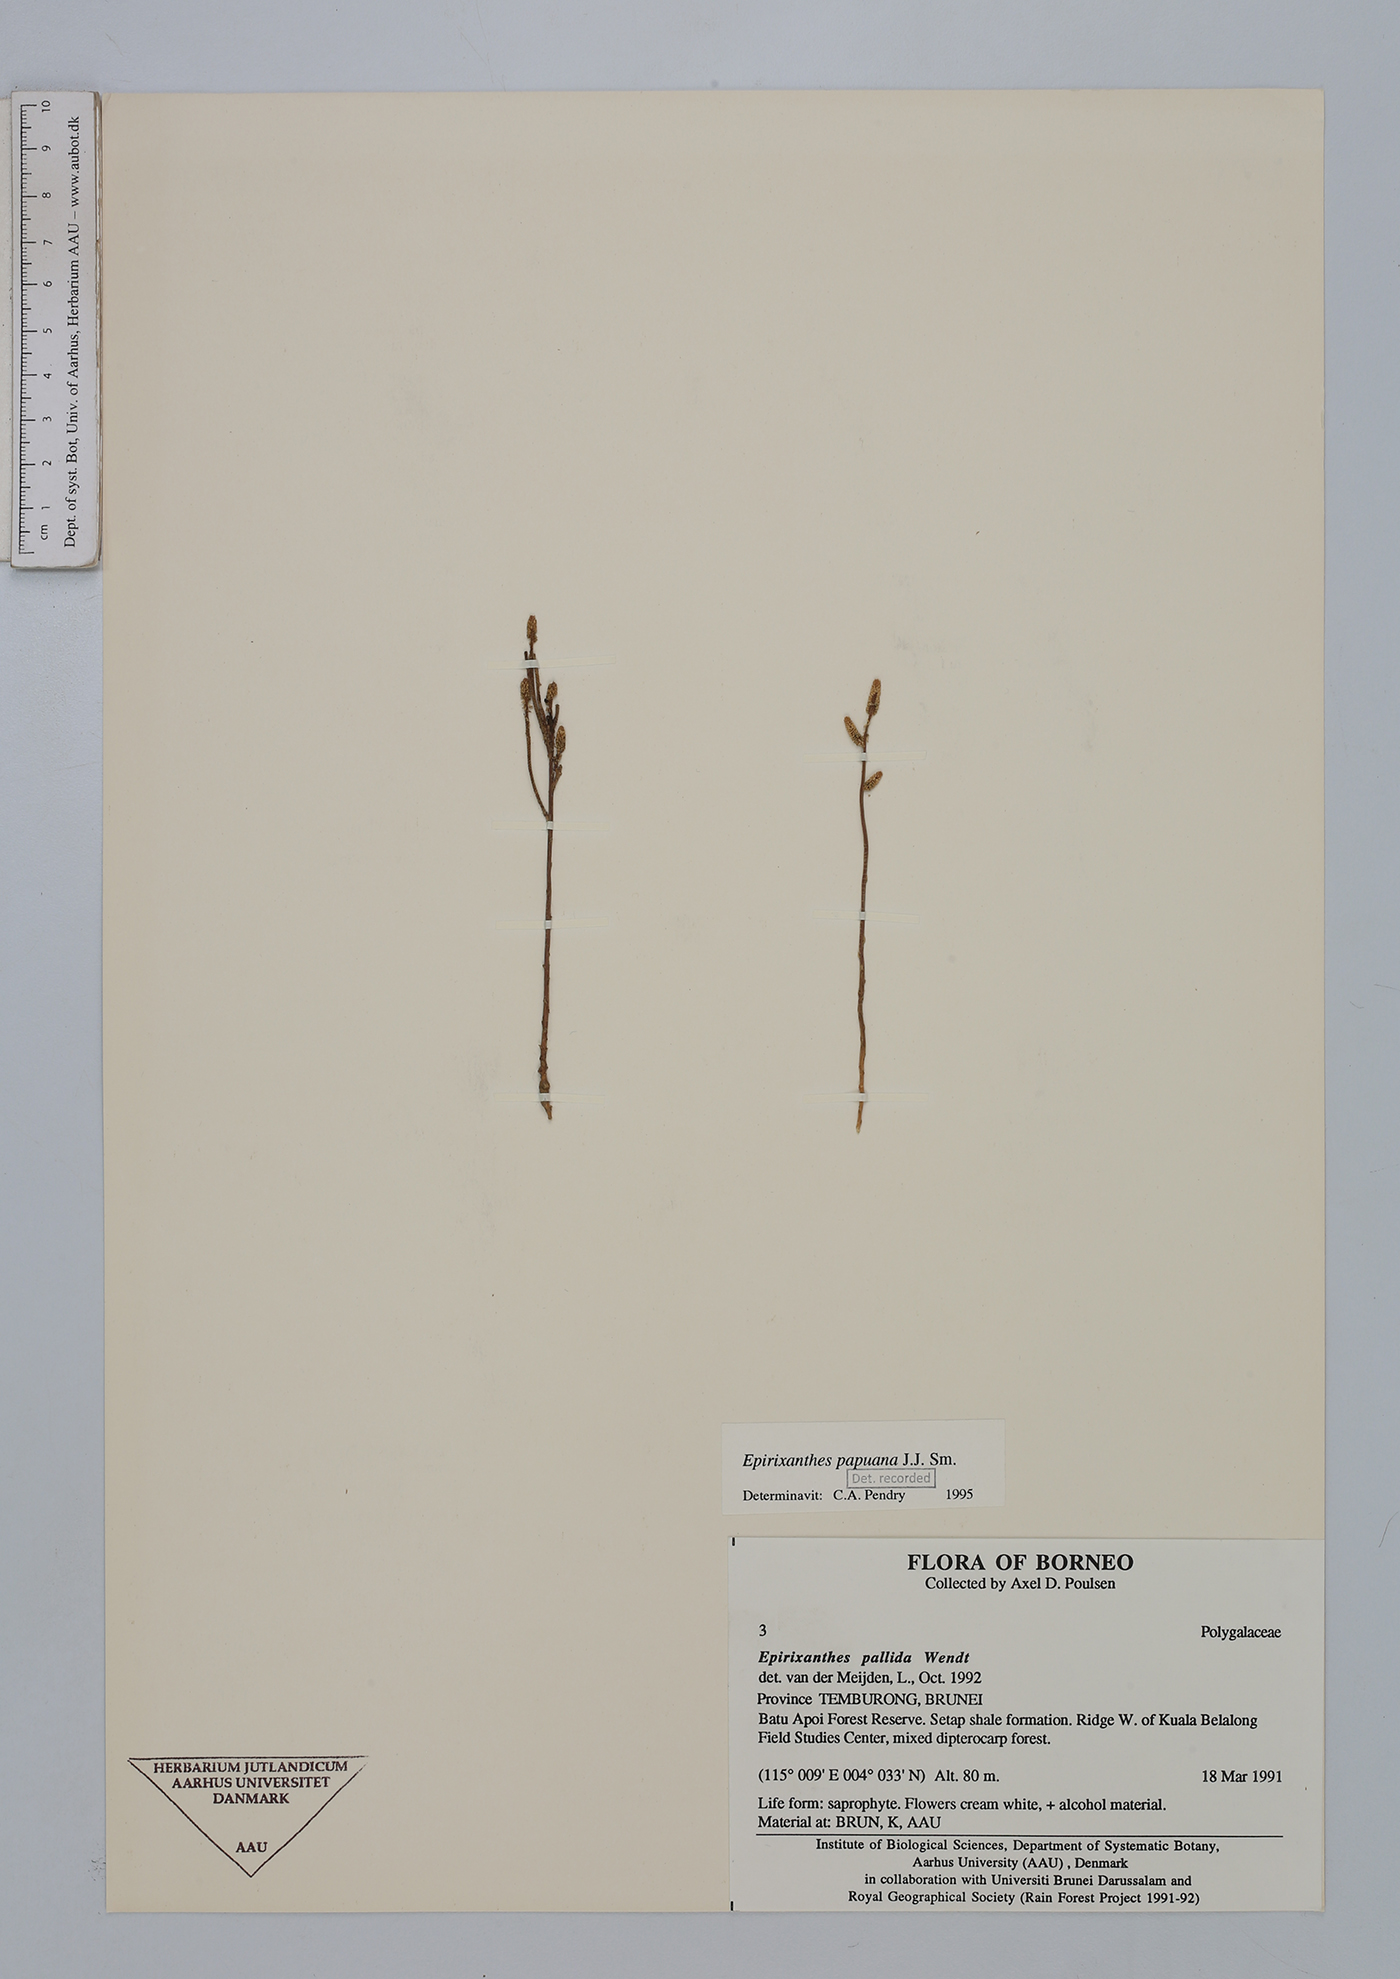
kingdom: Plantae
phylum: Tracheophyta
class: Magnoliopsida
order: Fabales
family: Polygalaceae
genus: Epirixanthes
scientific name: Epirixanthes papuana
